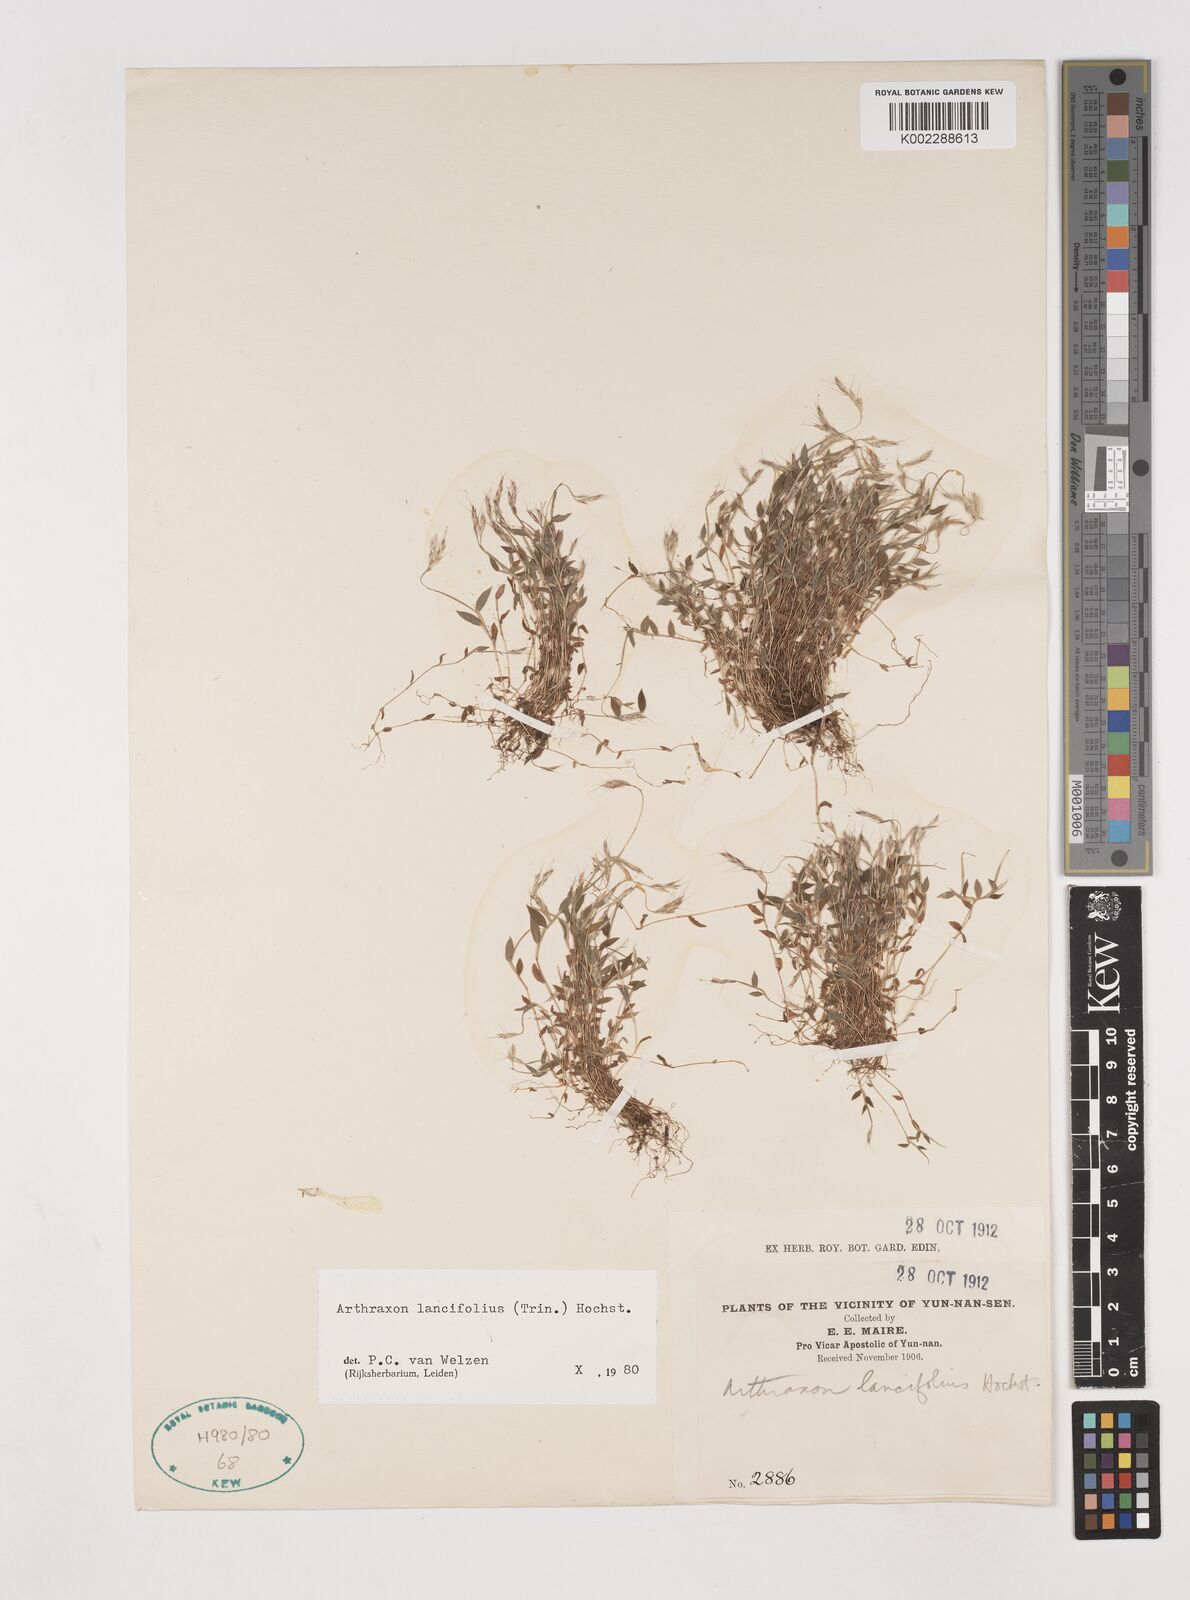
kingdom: Plantae
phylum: Tracheophyta
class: Liliopsida
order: Poales
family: Poaceae
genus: Arthraxon
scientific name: Arthraxon lancifolius
